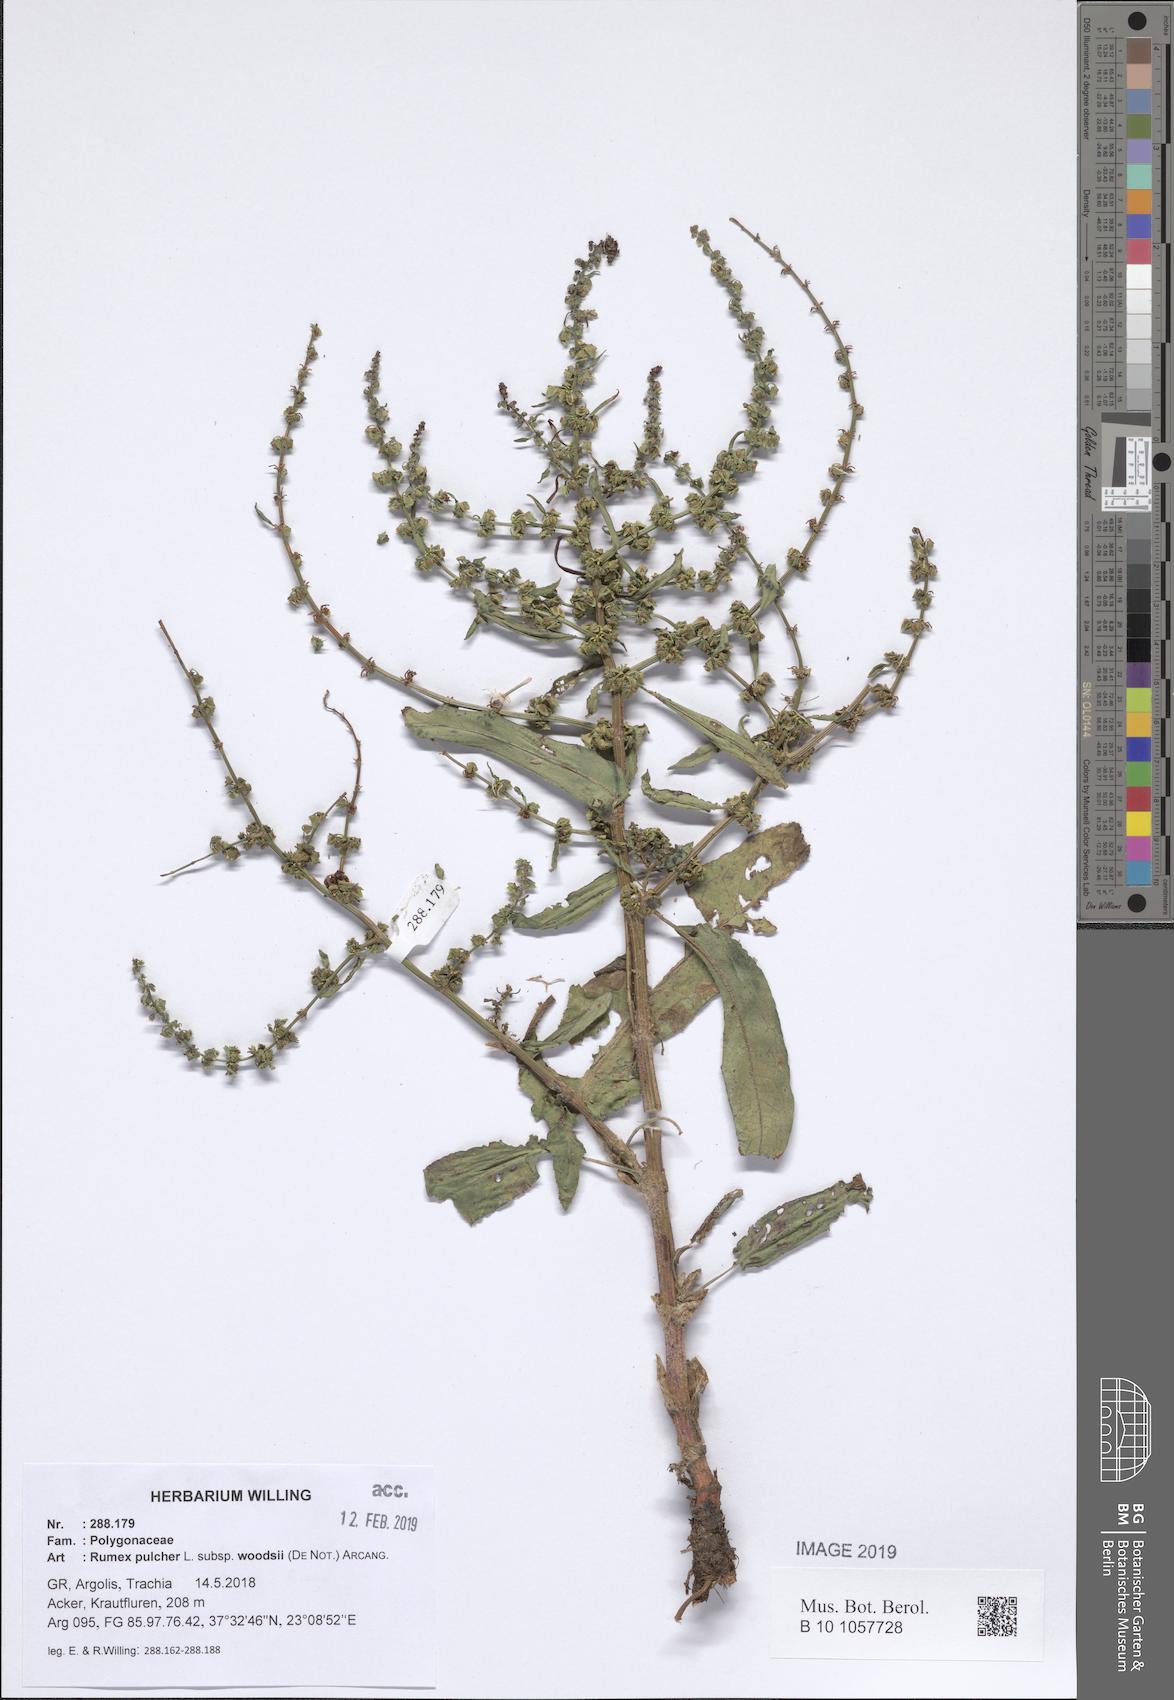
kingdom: Plantae
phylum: Tracheophyta
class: Magnoliopsida
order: Caryophyllales
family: Polygonaceae
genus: Rumex
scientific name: Rumex pulcher
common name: Fiddle dock
